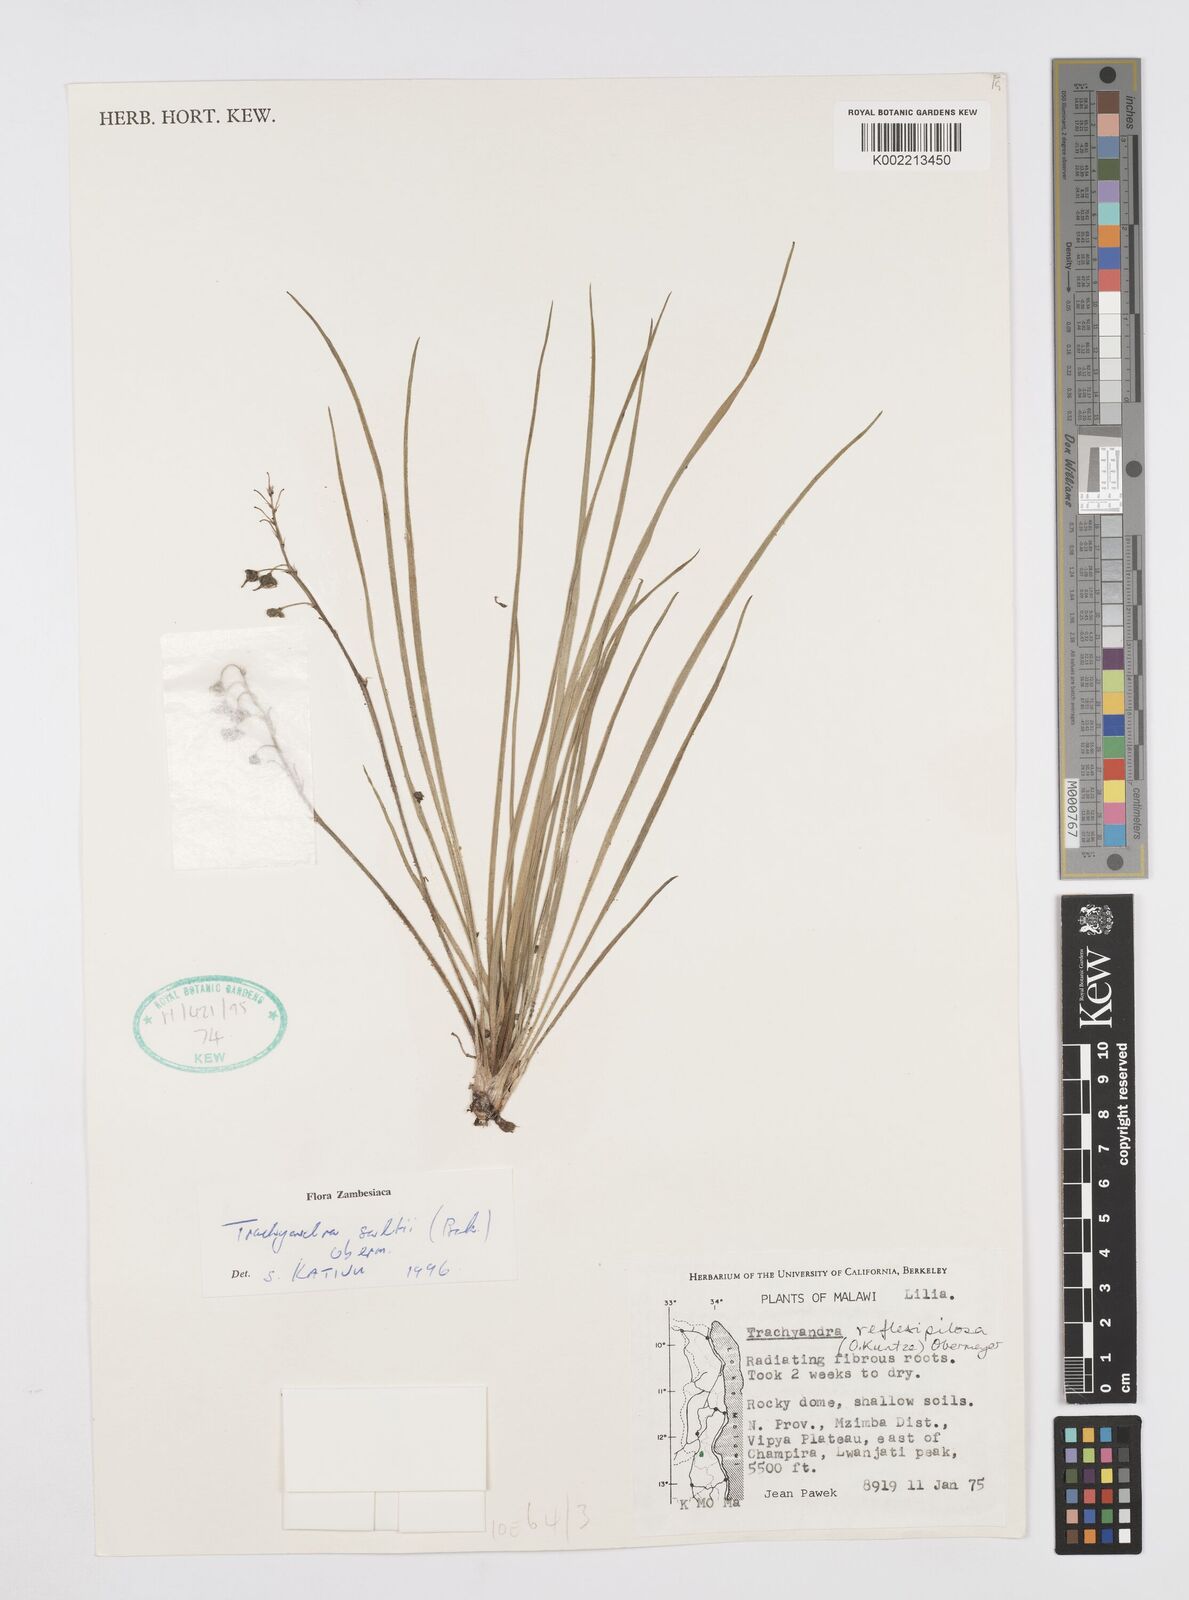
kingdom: Plantae
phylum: Tracheophyta
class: Liliopsida
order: Asparagales
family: Asphodelaceae
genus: Trachyandra
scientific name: Trachyandra saltii
